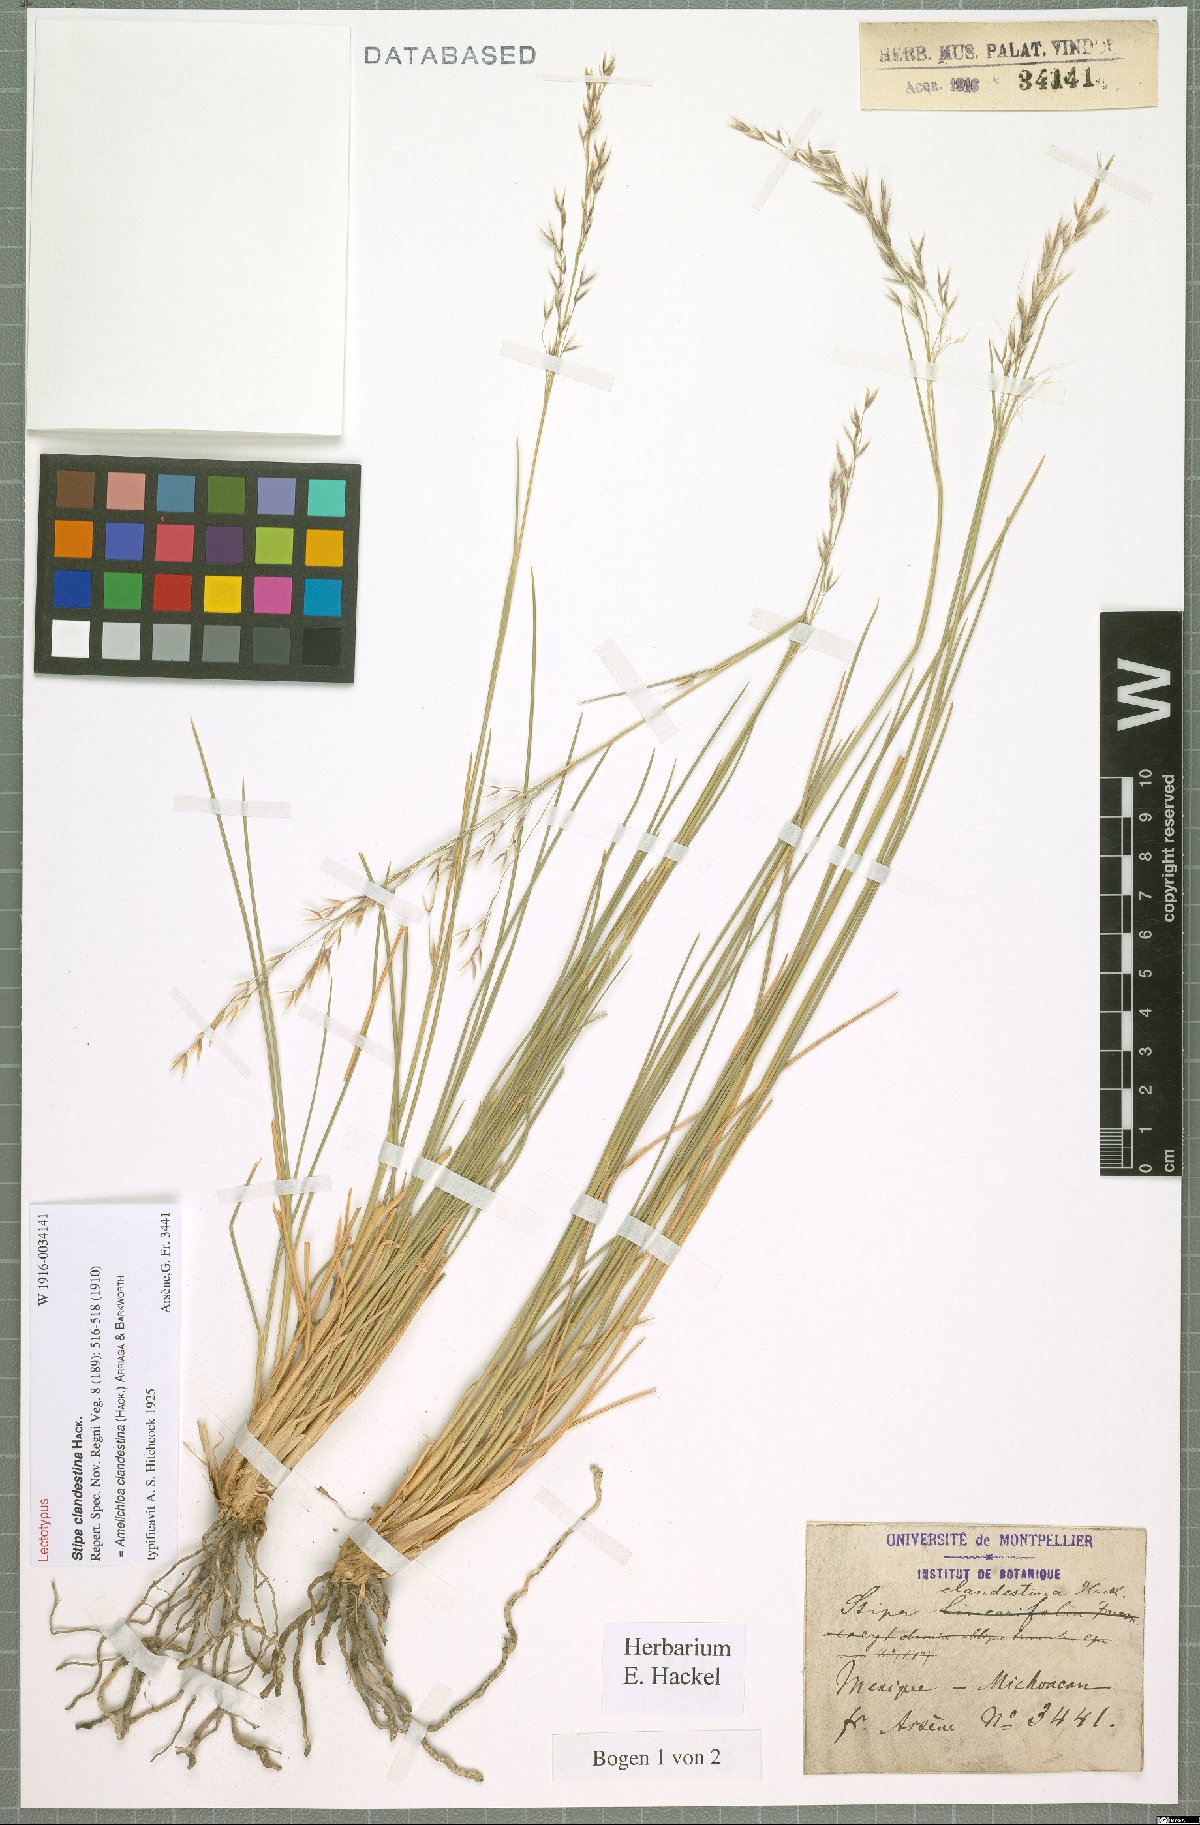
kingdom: Plantae
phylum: Tracheophyta
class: Liliopsida
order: Poales
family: Poaceae
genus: Amelichloa
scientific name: Amelichloa clandestina
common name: Mexican ricegrass
